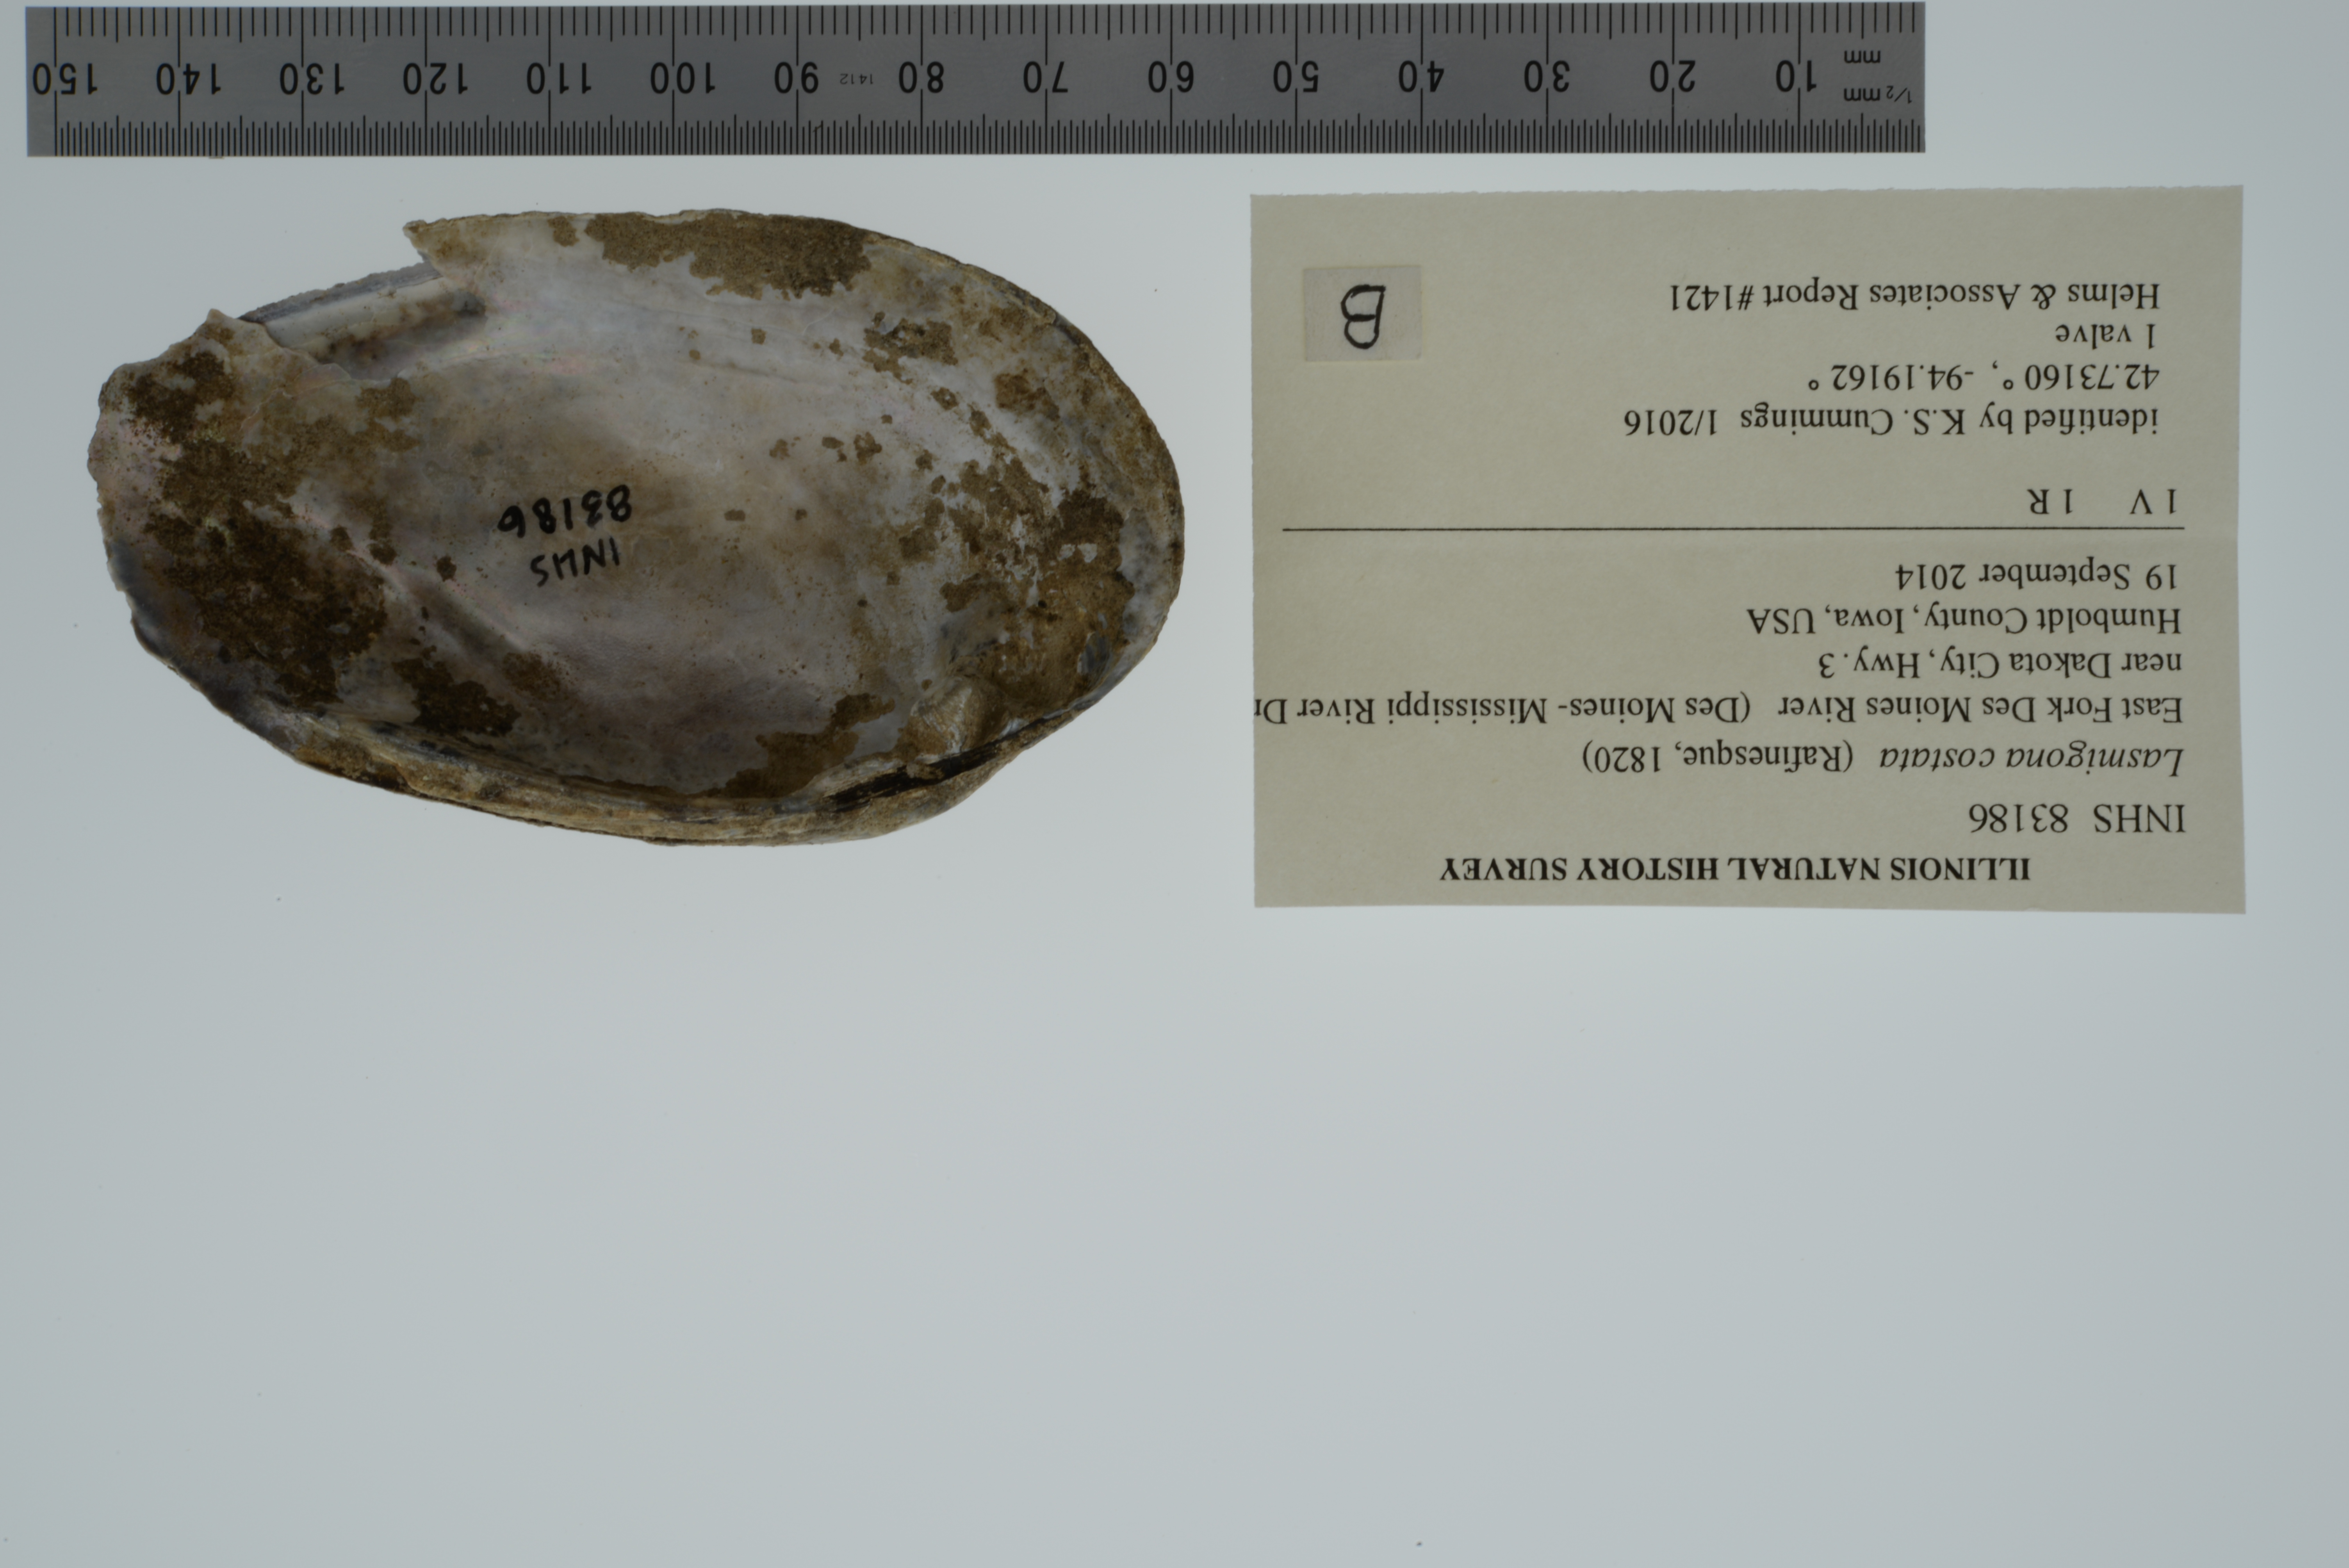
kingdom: Animalia
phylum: Mollusca
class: Bivalvia
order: Unionida
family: Unionidae
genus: Lasmigona
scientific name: Lasmigona costata
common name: Flutedshell
